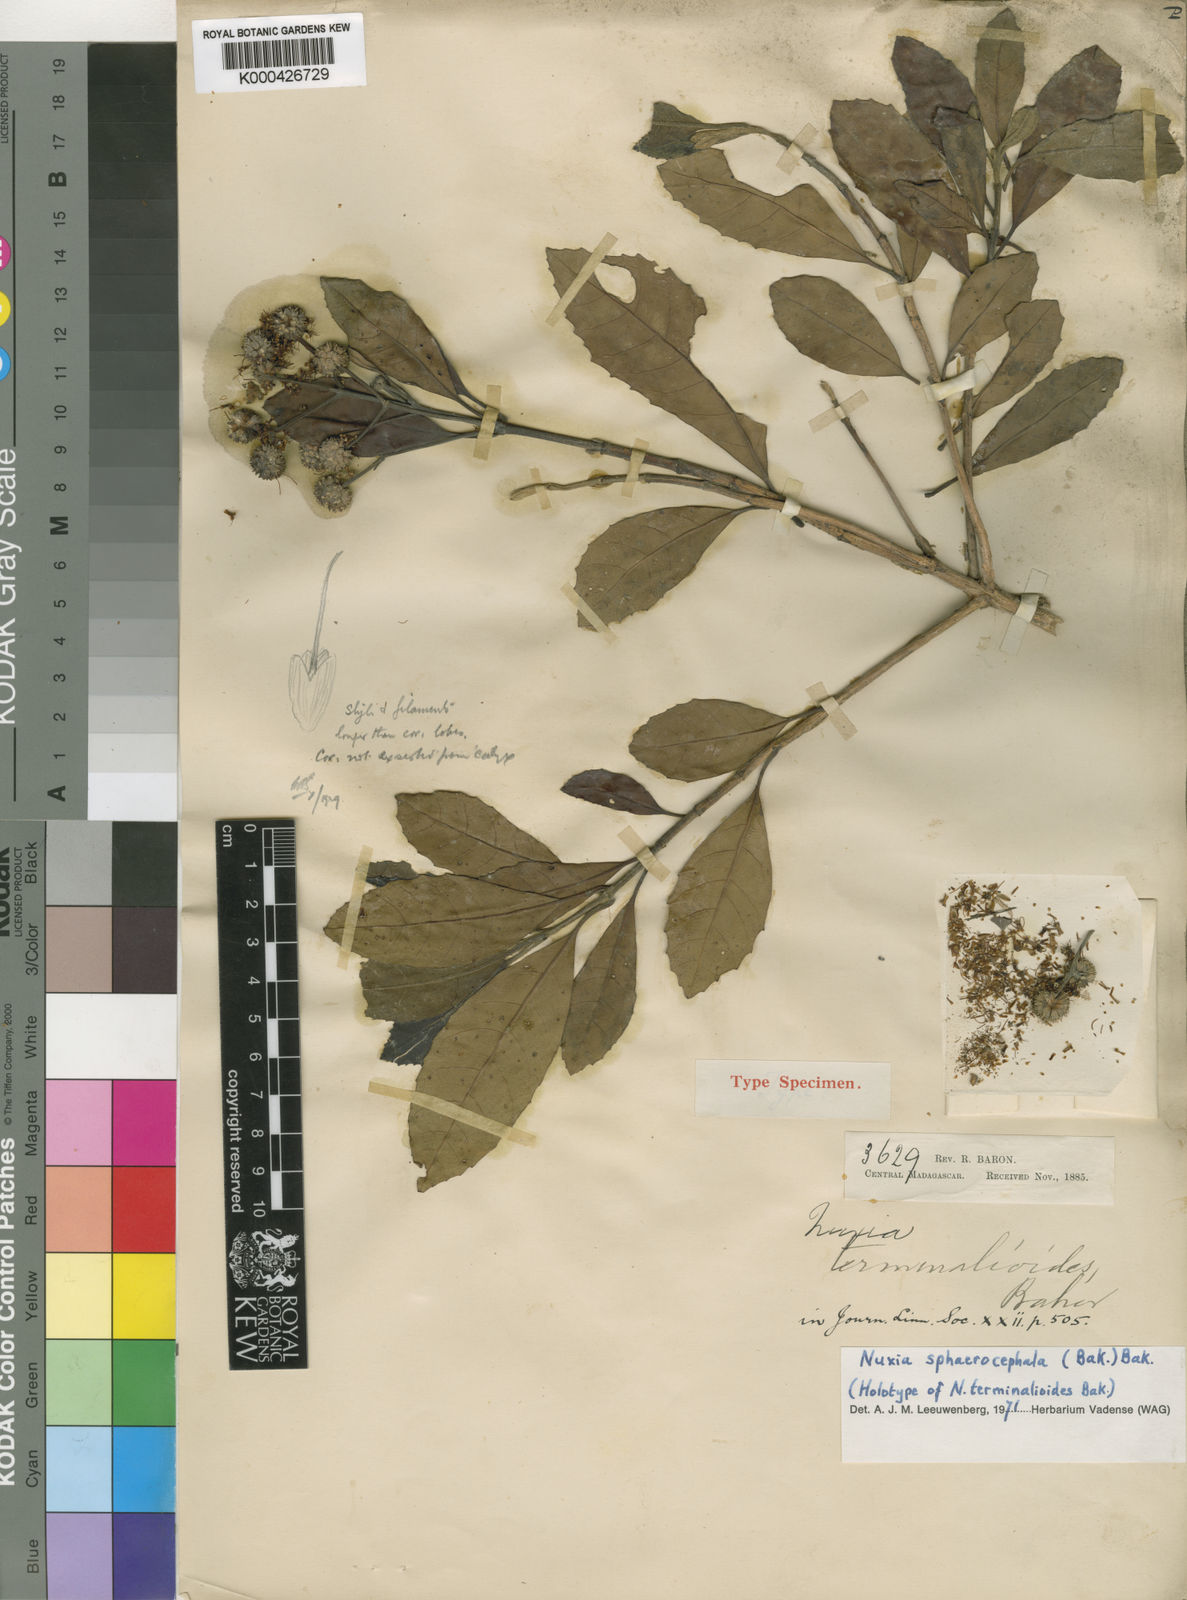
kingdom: Plantae
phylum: Tracheophyta
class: Magnoliopsida
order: Lamiales
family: Stilbaceae
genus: Nuxia
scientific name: Nuxia sphaerocephala
